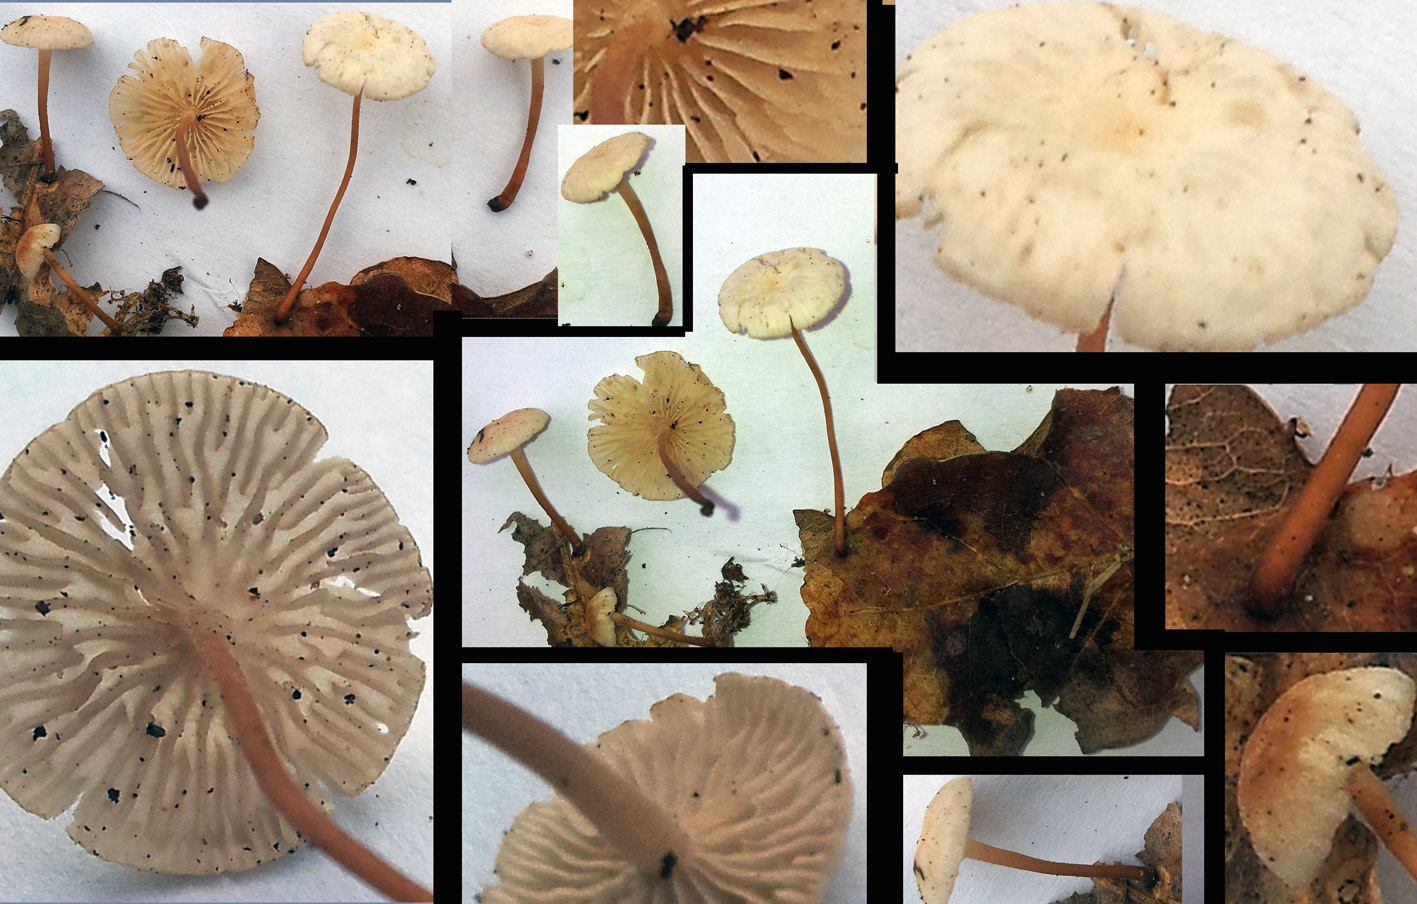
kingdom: Fungi
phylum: Basidiomycota
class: Agaricomycetes
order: Agaricales
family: Omphalotaceae
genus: Collybiopsis
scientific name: Collybiopsis quercophila
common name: egeblads-bruskhat
